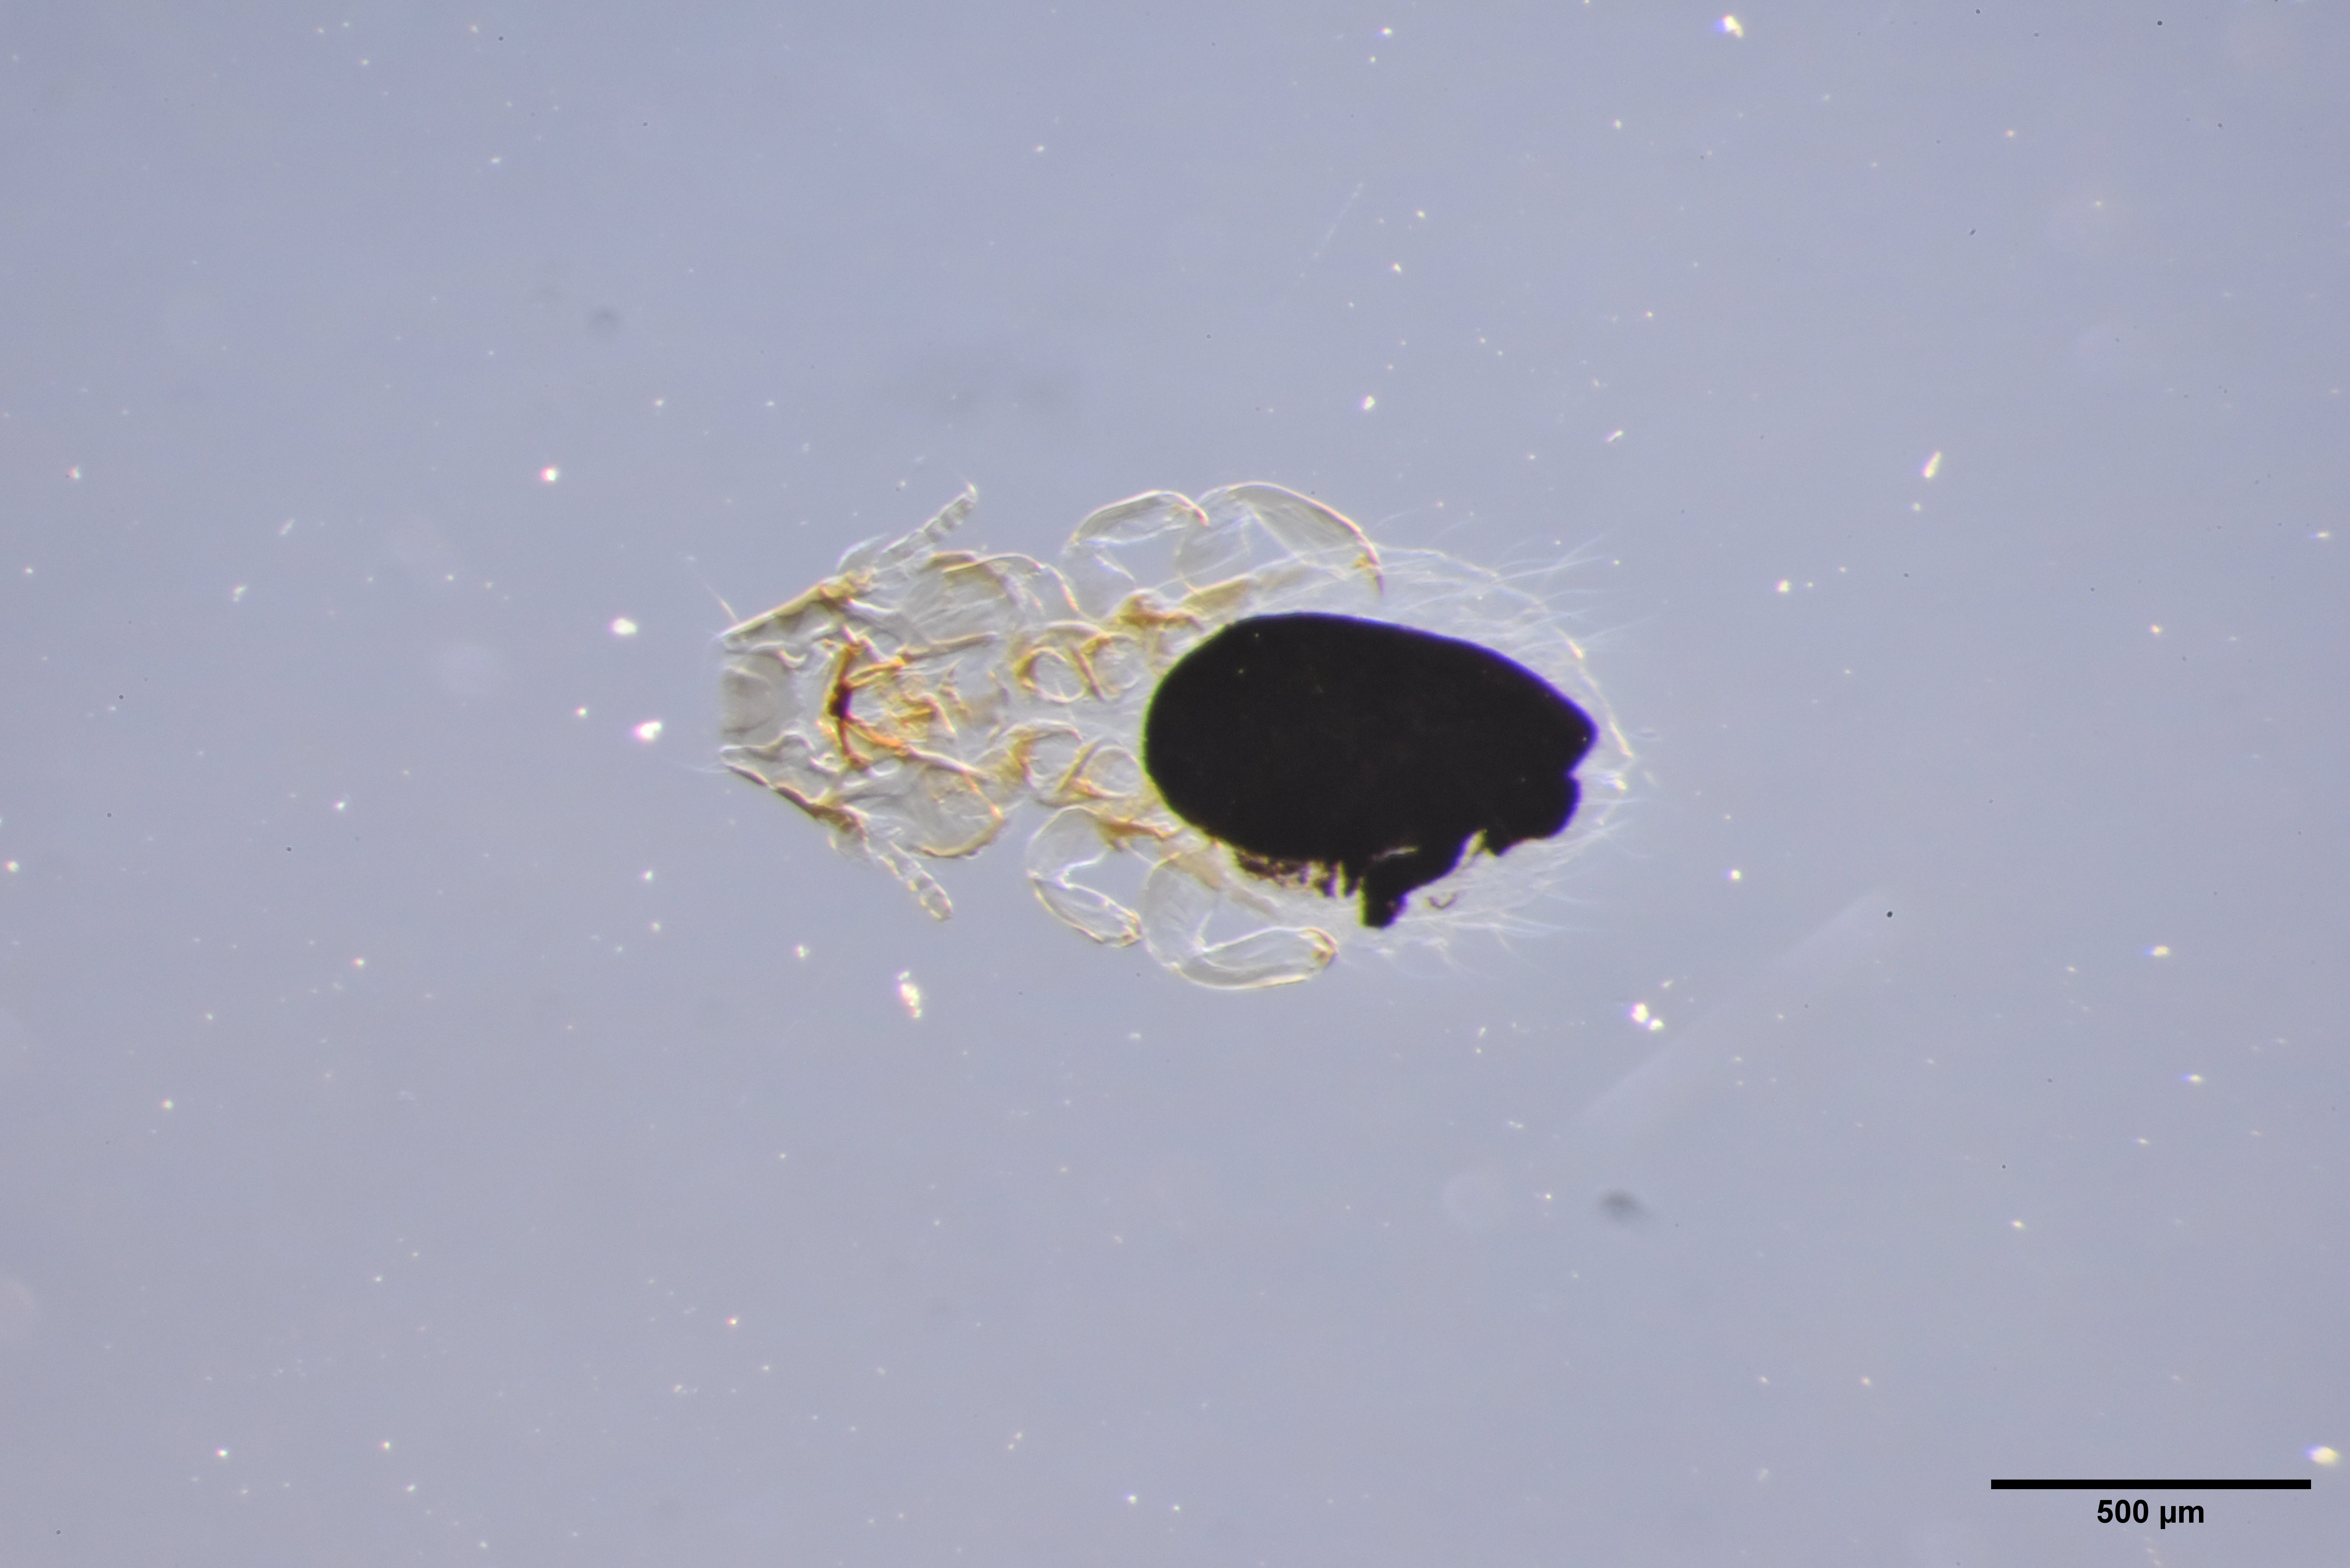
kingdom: Animalia
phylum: Arthropoda
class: Insecta
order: Psocodea
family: Philopteridae
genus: Philopterus
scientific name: Philopterus turdi
